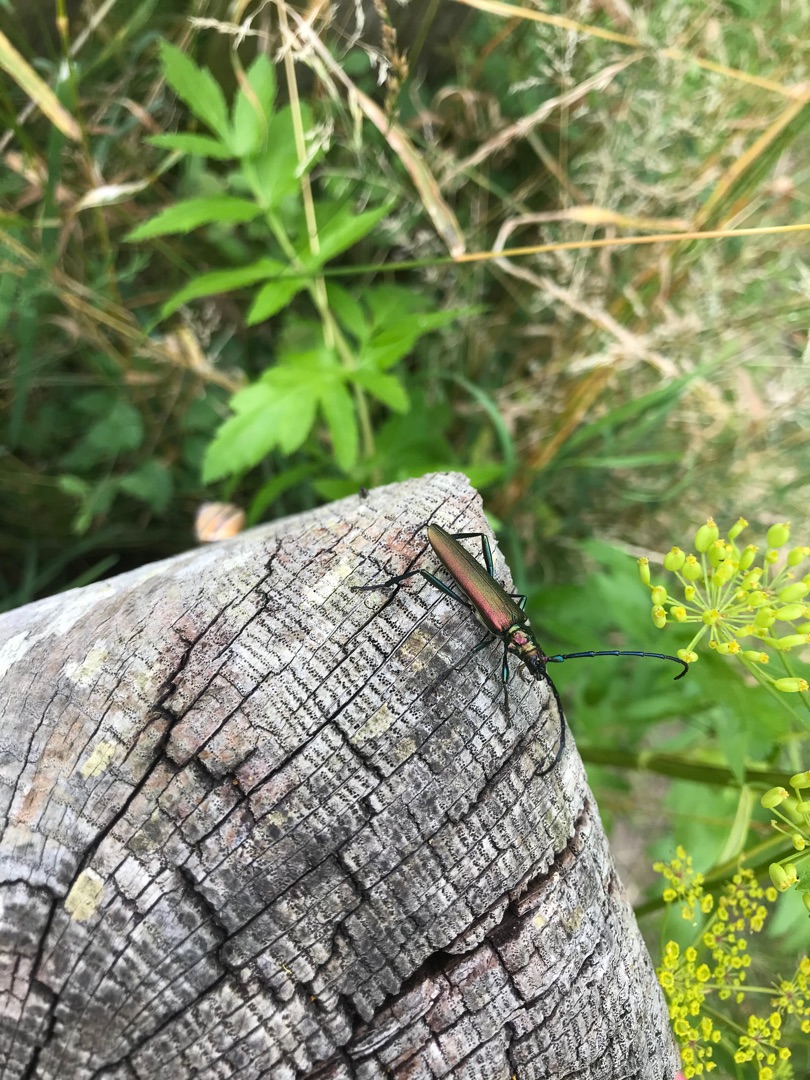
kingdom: Animalia
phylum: Arthropoda
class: Insecta
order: Coleoptera
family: Cerambycidae
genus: Aromia
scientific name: Aromia moschata
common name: Moskusbuk
